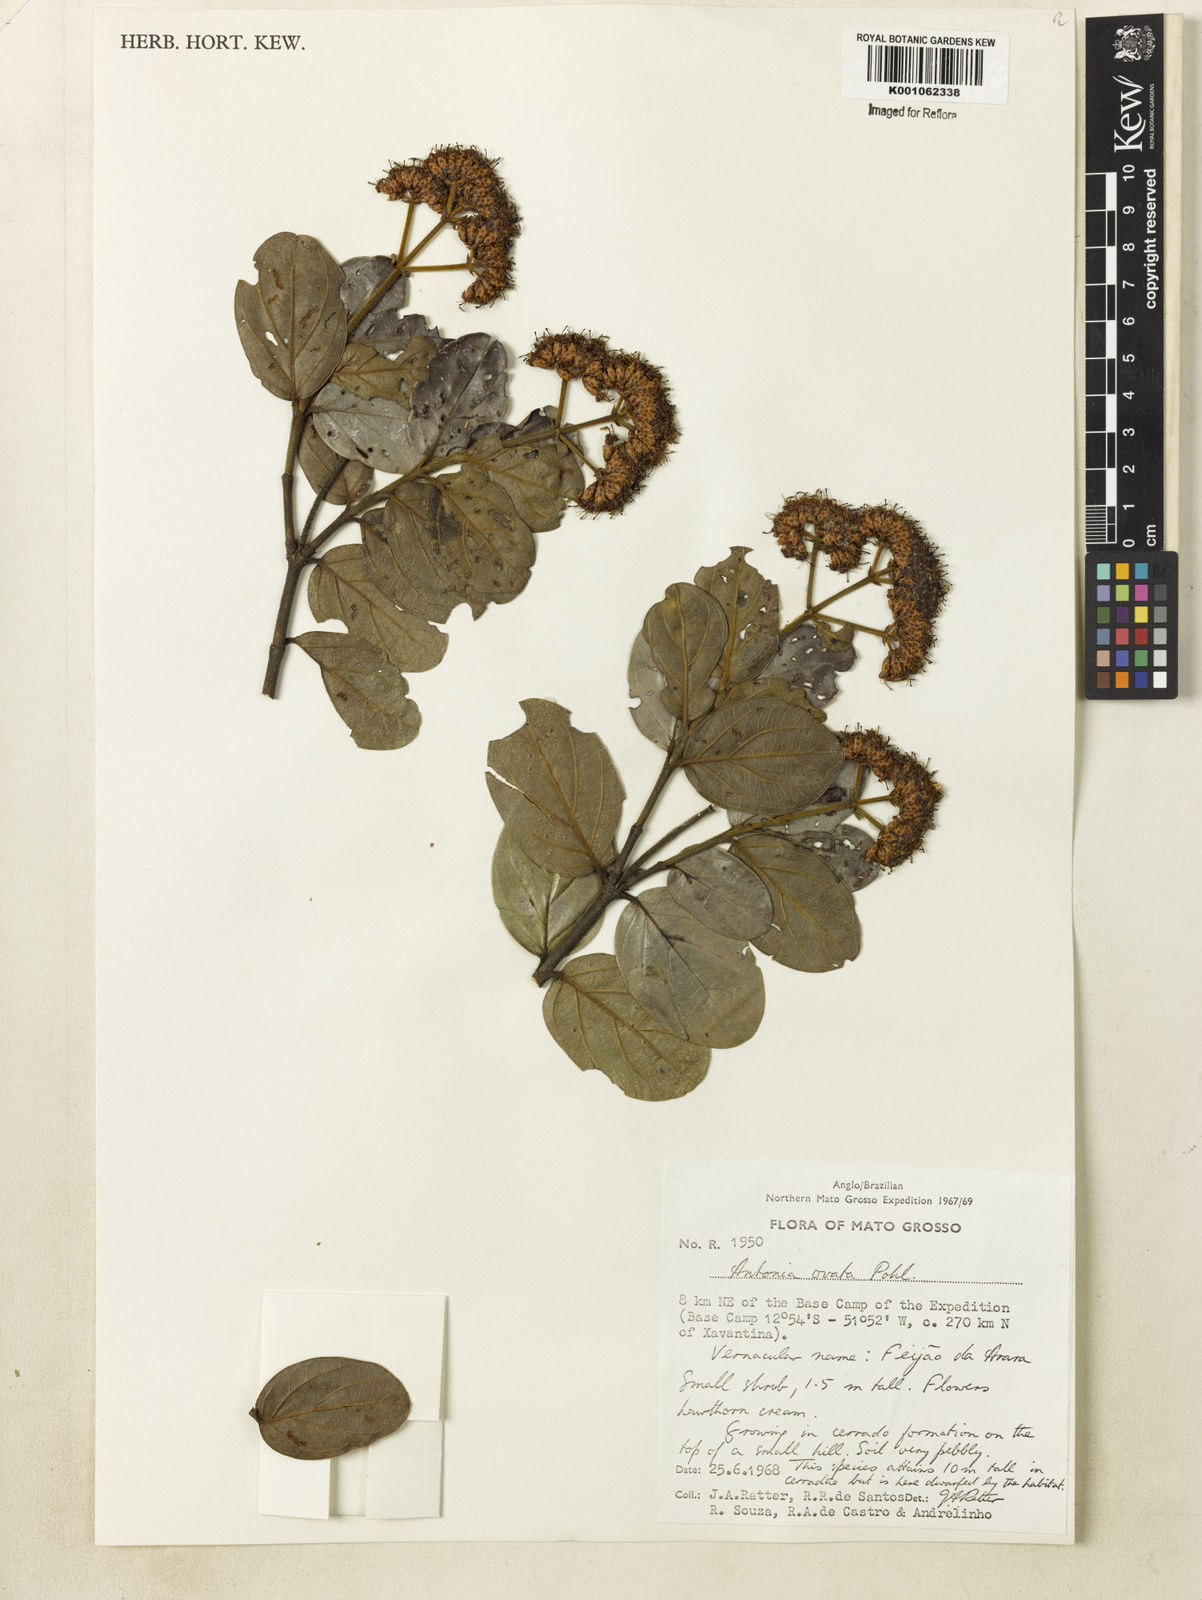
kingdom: Plantae
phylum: Tracheophyta
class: Magnoliopsida
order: Gentianales
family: Loganiaceae
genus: Antonia
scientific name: Antonia ovata
